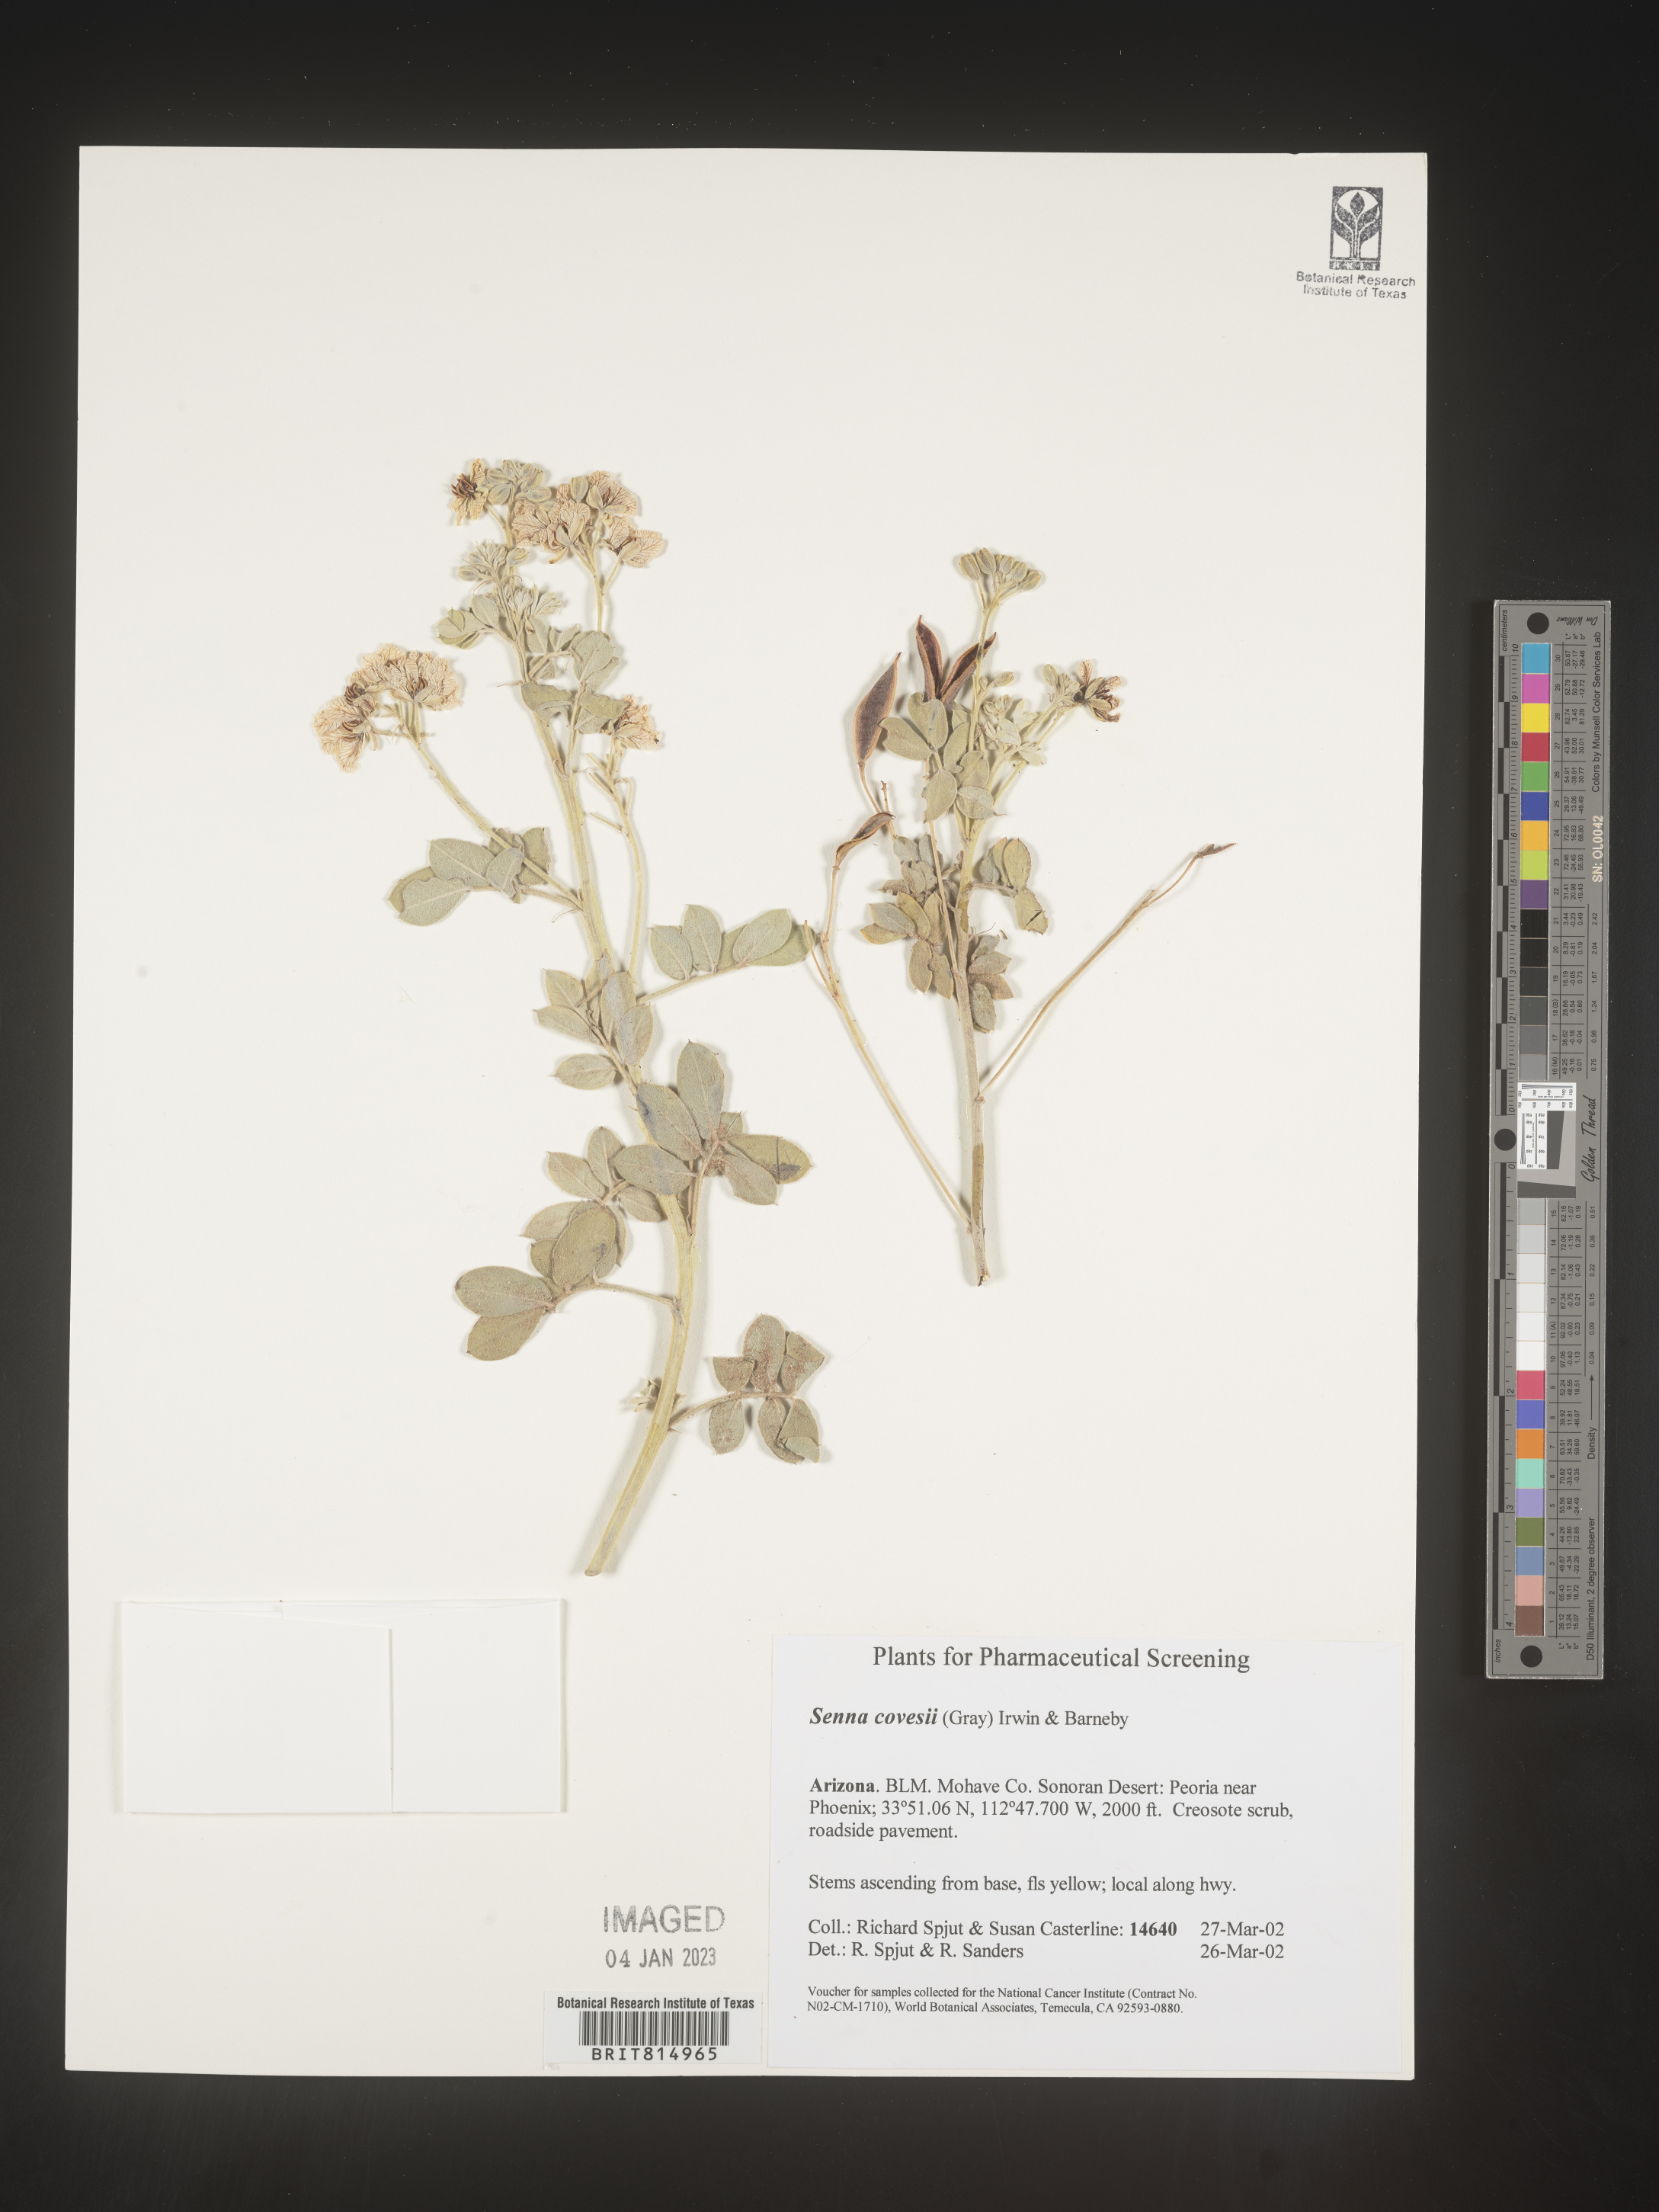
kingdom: Plantae
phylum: Tracheophyta
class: Magnoliopsida
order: Fabales
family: Fabaceae
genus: Cassia
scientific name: Cassia
